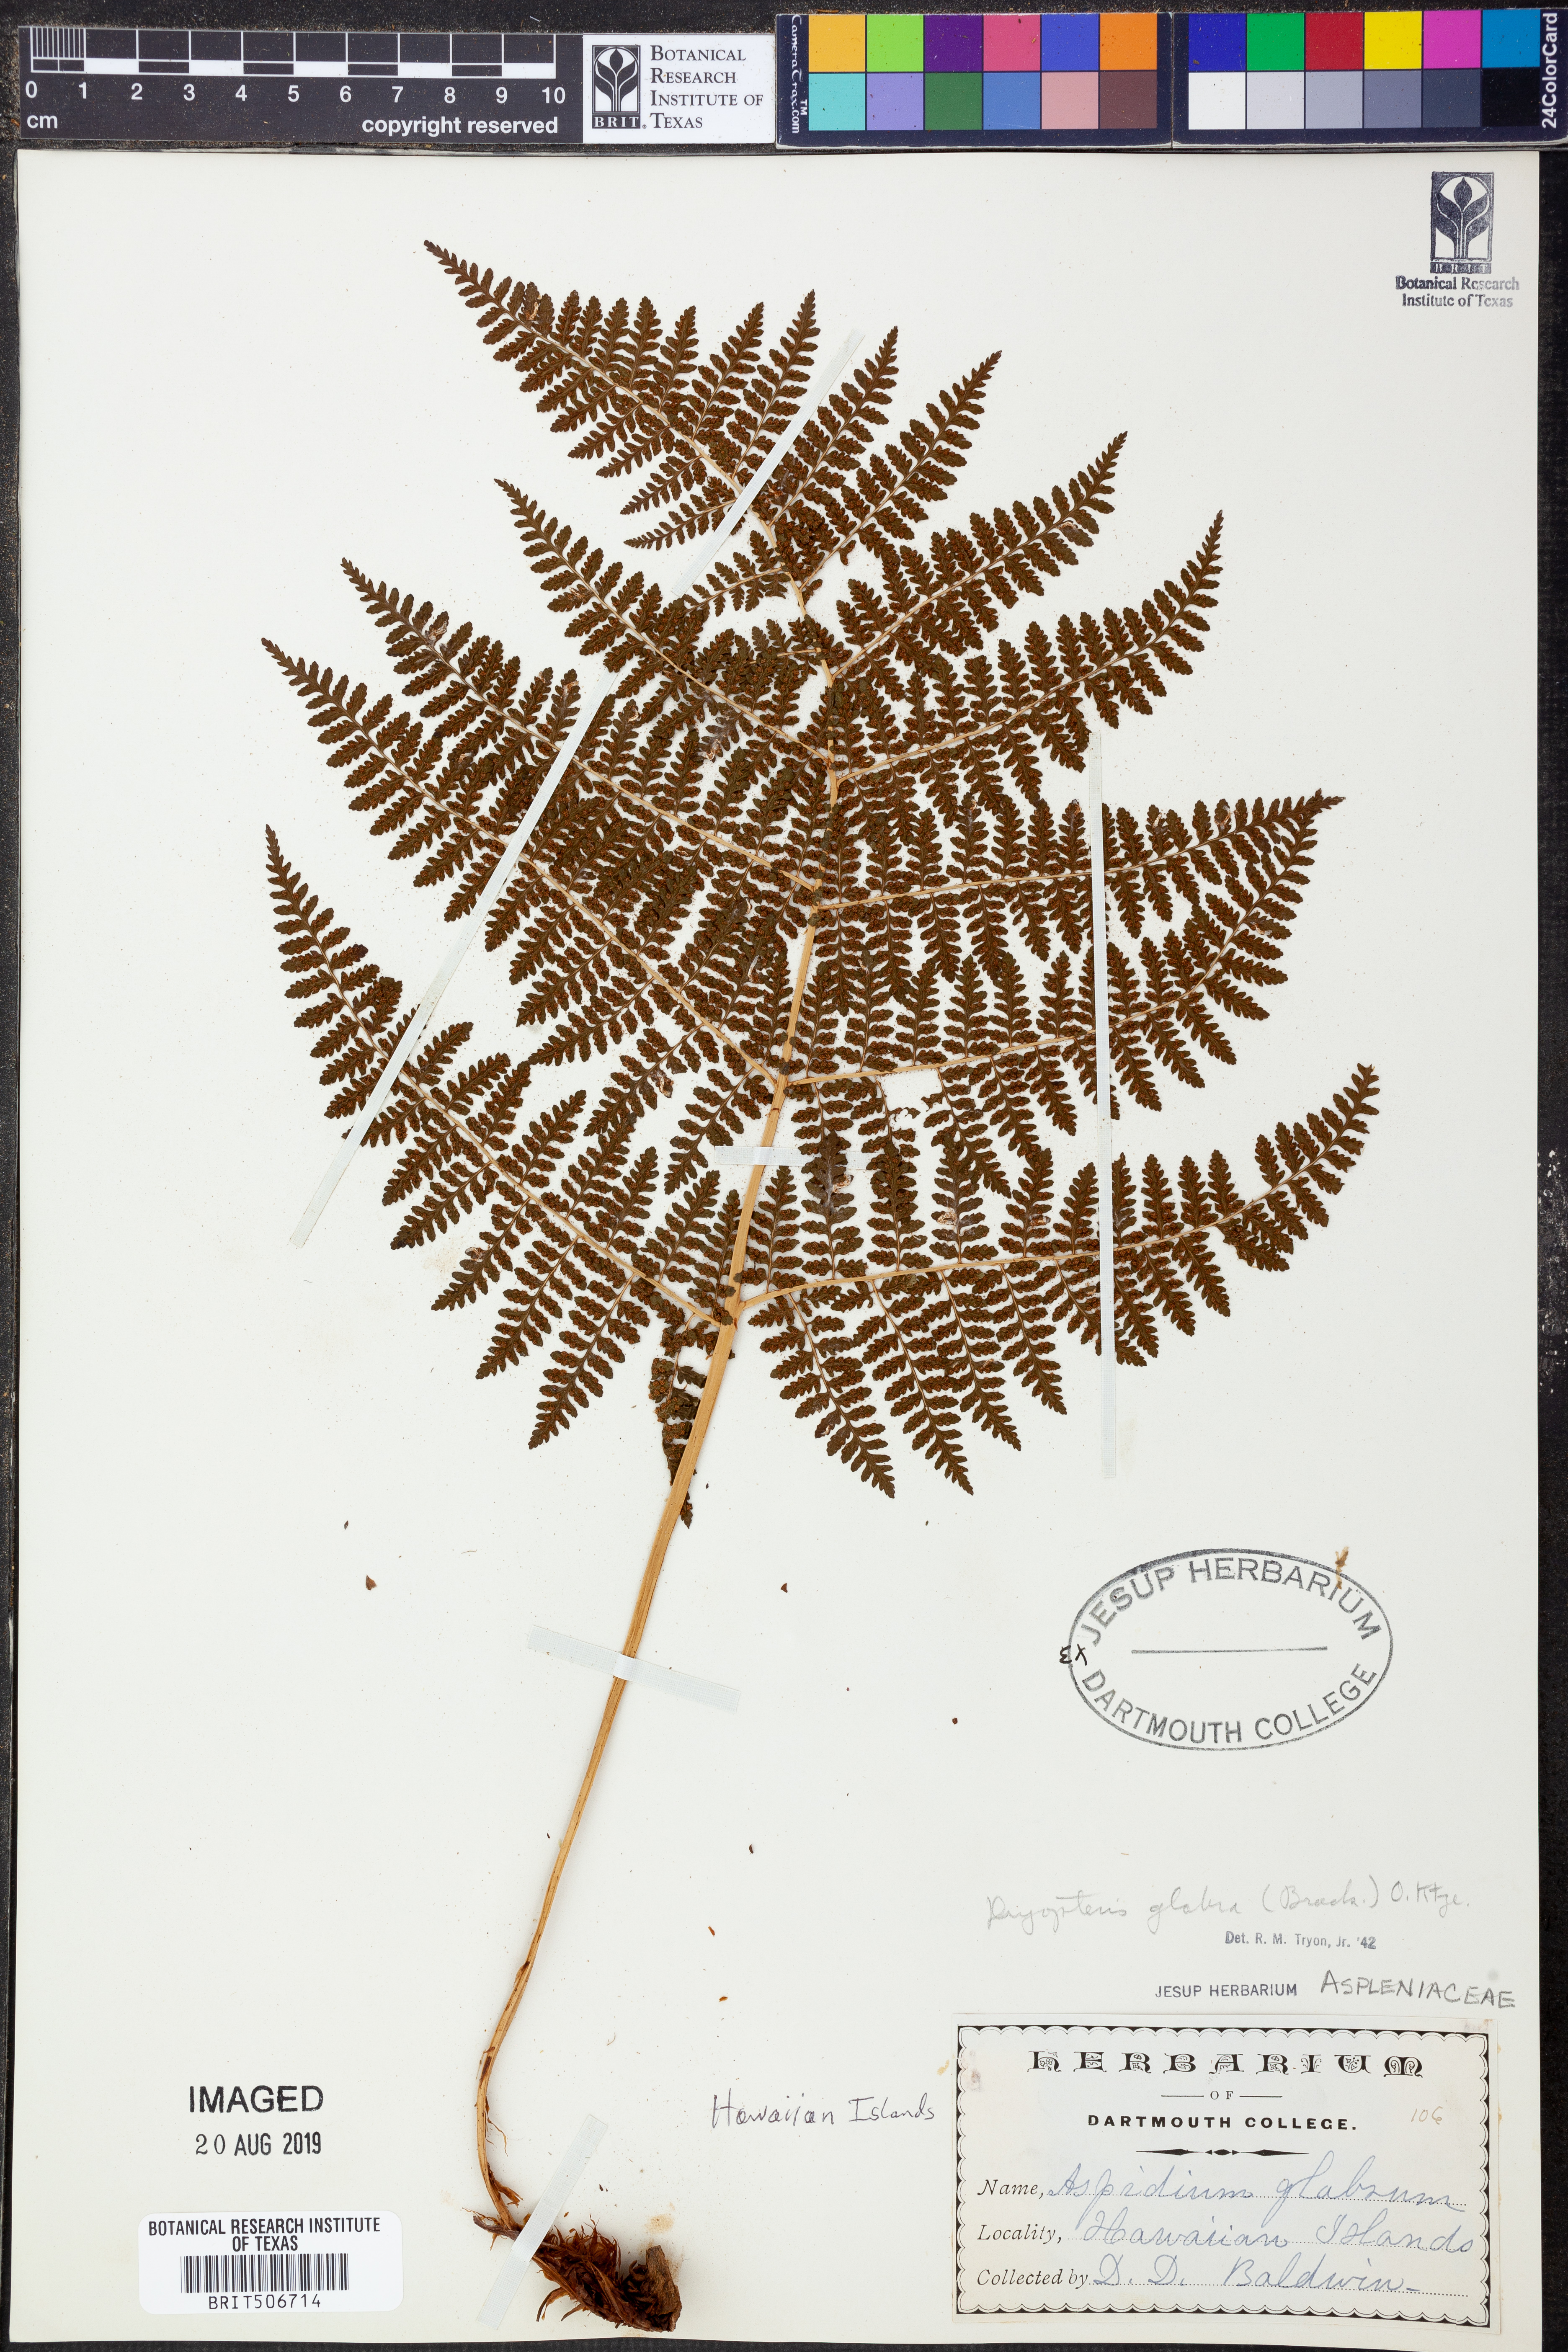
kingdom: Plantae
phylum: Tracheophyta
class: Polypodiopsida
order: Polypodiales
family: Dryopteridaceae
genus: Dryopteris
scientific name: Dryopteris glabra
